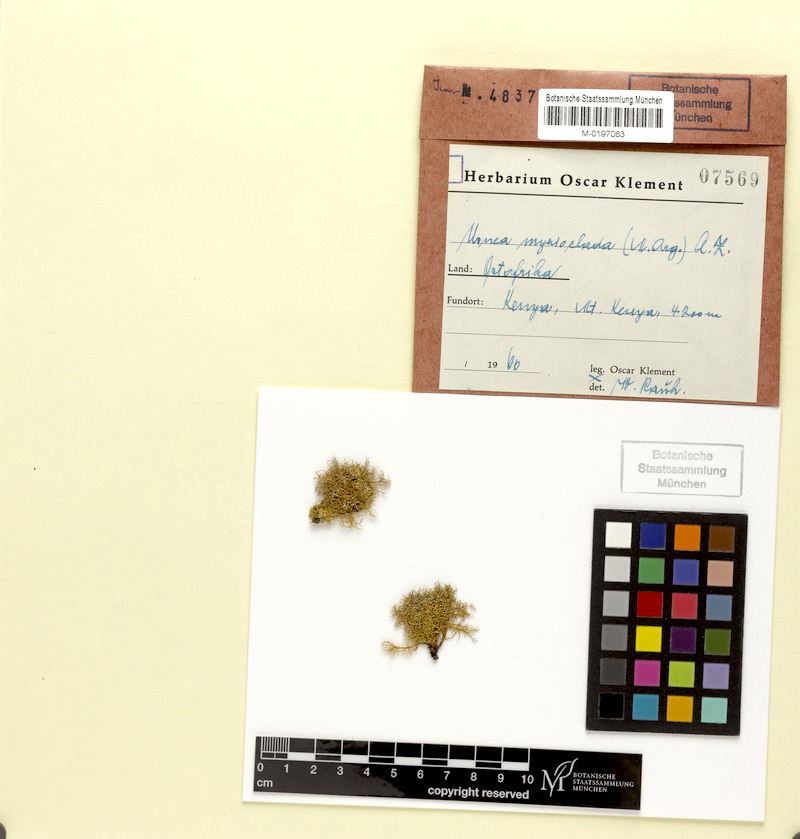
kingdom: Fungi
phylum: Ascomycota
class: Lecanoromycetes
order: Lecanorales
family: Ramalinaceae
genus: Ramalina
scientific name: Ramalina australiensis
